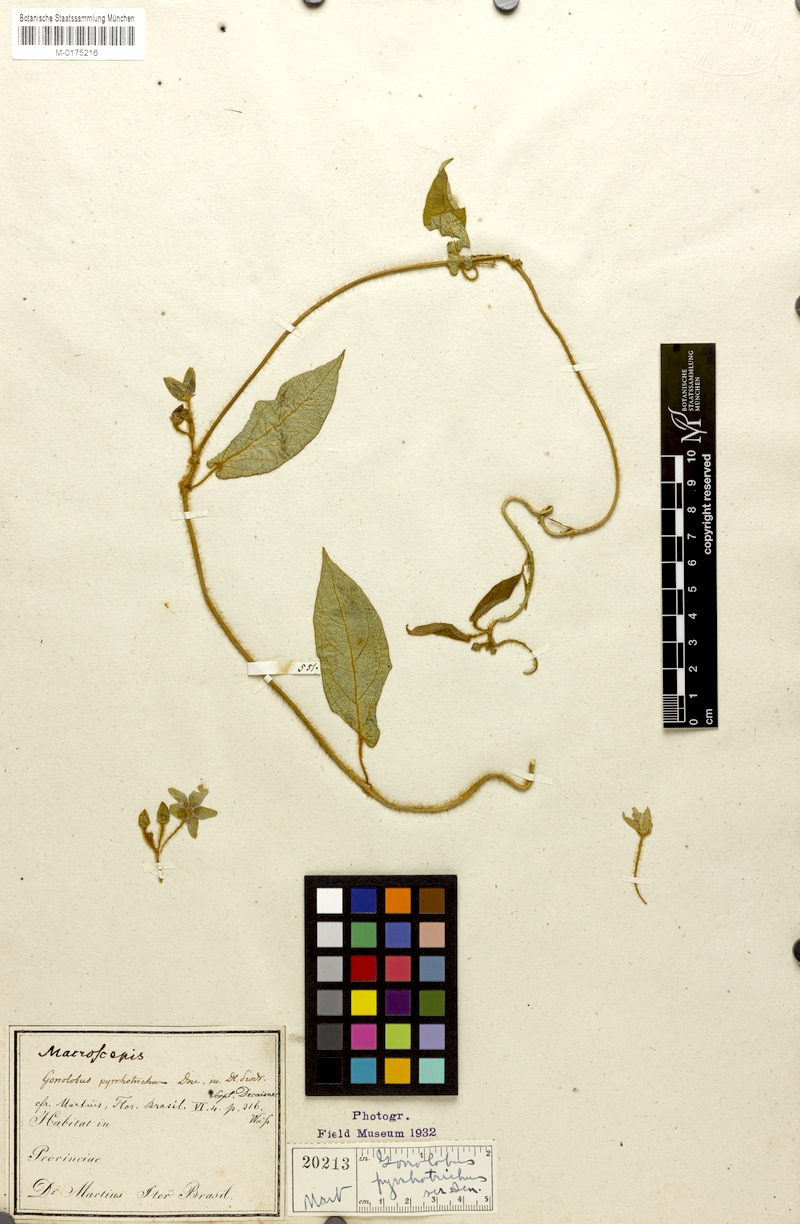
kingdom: Plantae
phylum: Tracheophyta
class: Magnoliopsida
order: Gentianales
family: Apocynaceae
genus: Matelea
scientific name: Matelea pyrrhotricha
